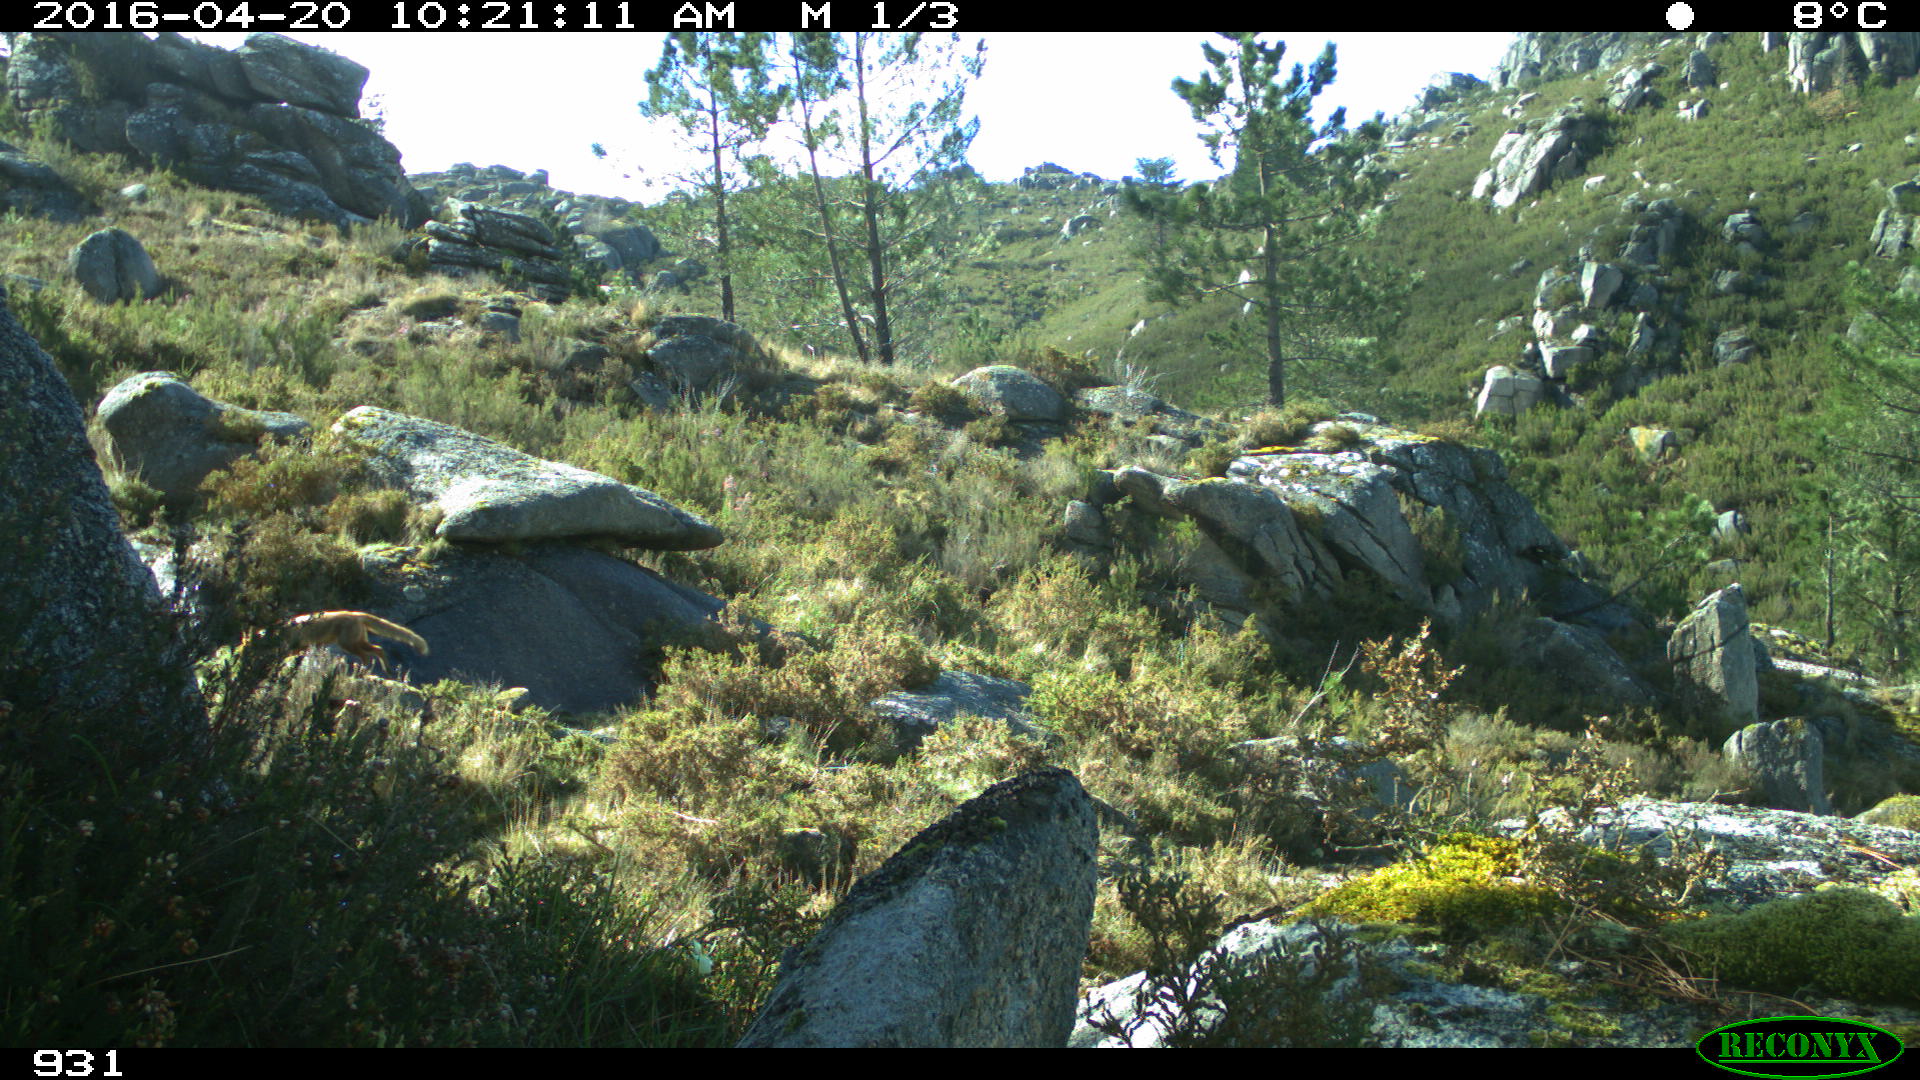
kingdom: Animalia
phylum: Chordata
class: Mammalia
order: Carnivora
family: Canidae
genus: Vulpes
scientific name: Vulpes vulpes
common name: Red fox
